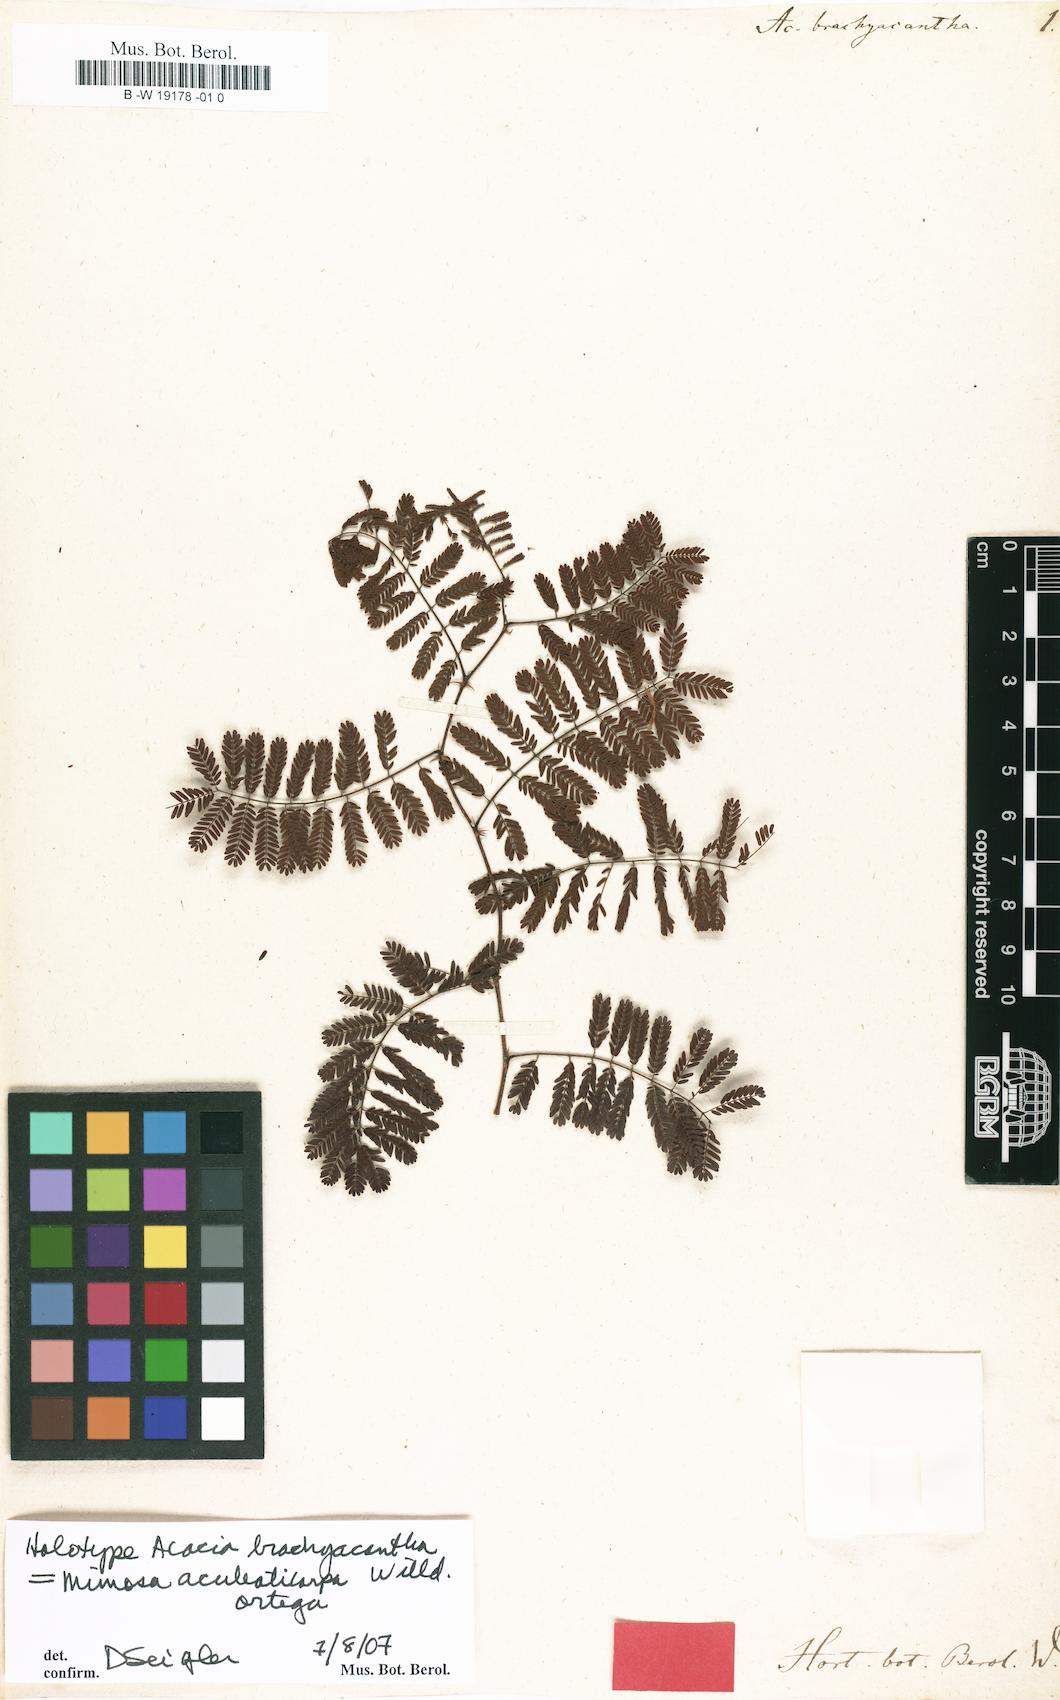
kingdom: Plantae
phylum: Tracheophyta
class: Magnoliopsida
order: Fabales
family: Fabaceae
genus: Mimosa
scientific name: Mimosa aculeaticarpa
